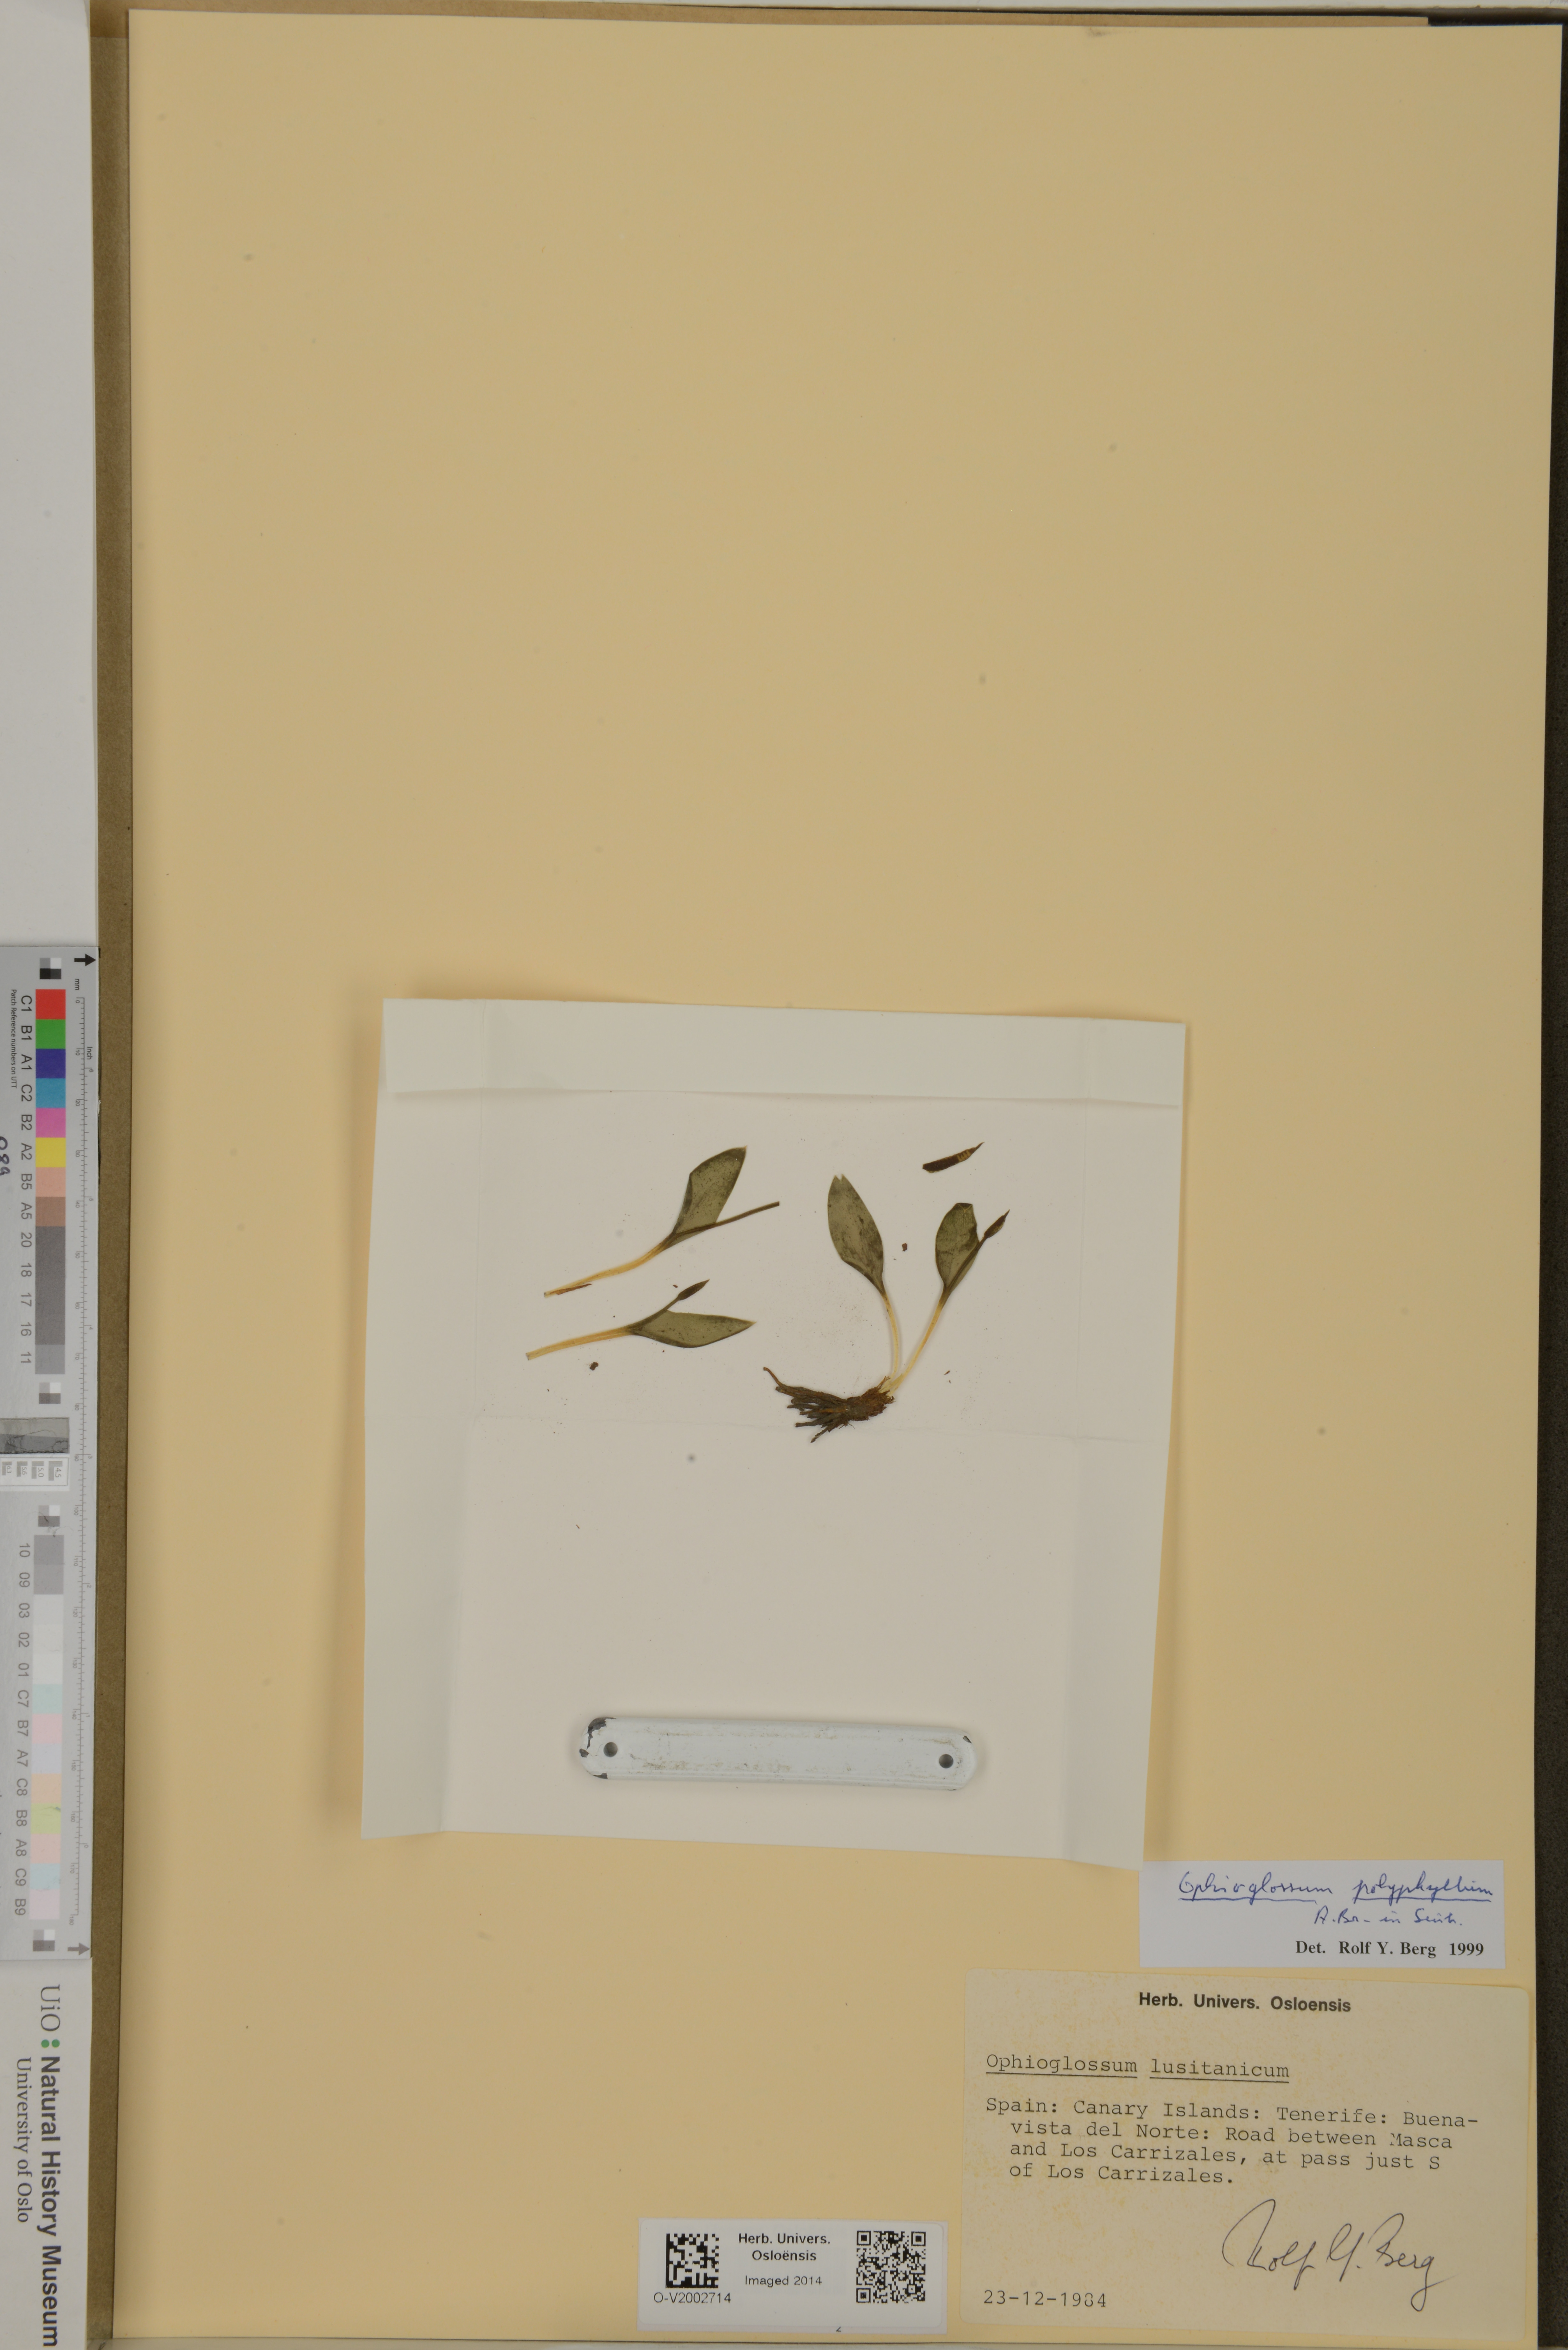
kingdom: Plantae
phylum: Tracheophyta
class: Polypodiopsida
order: Ophioglossales
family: Ophioglossaceae
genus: Ophioglossum
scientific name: Ophioglossum polyphyllum
